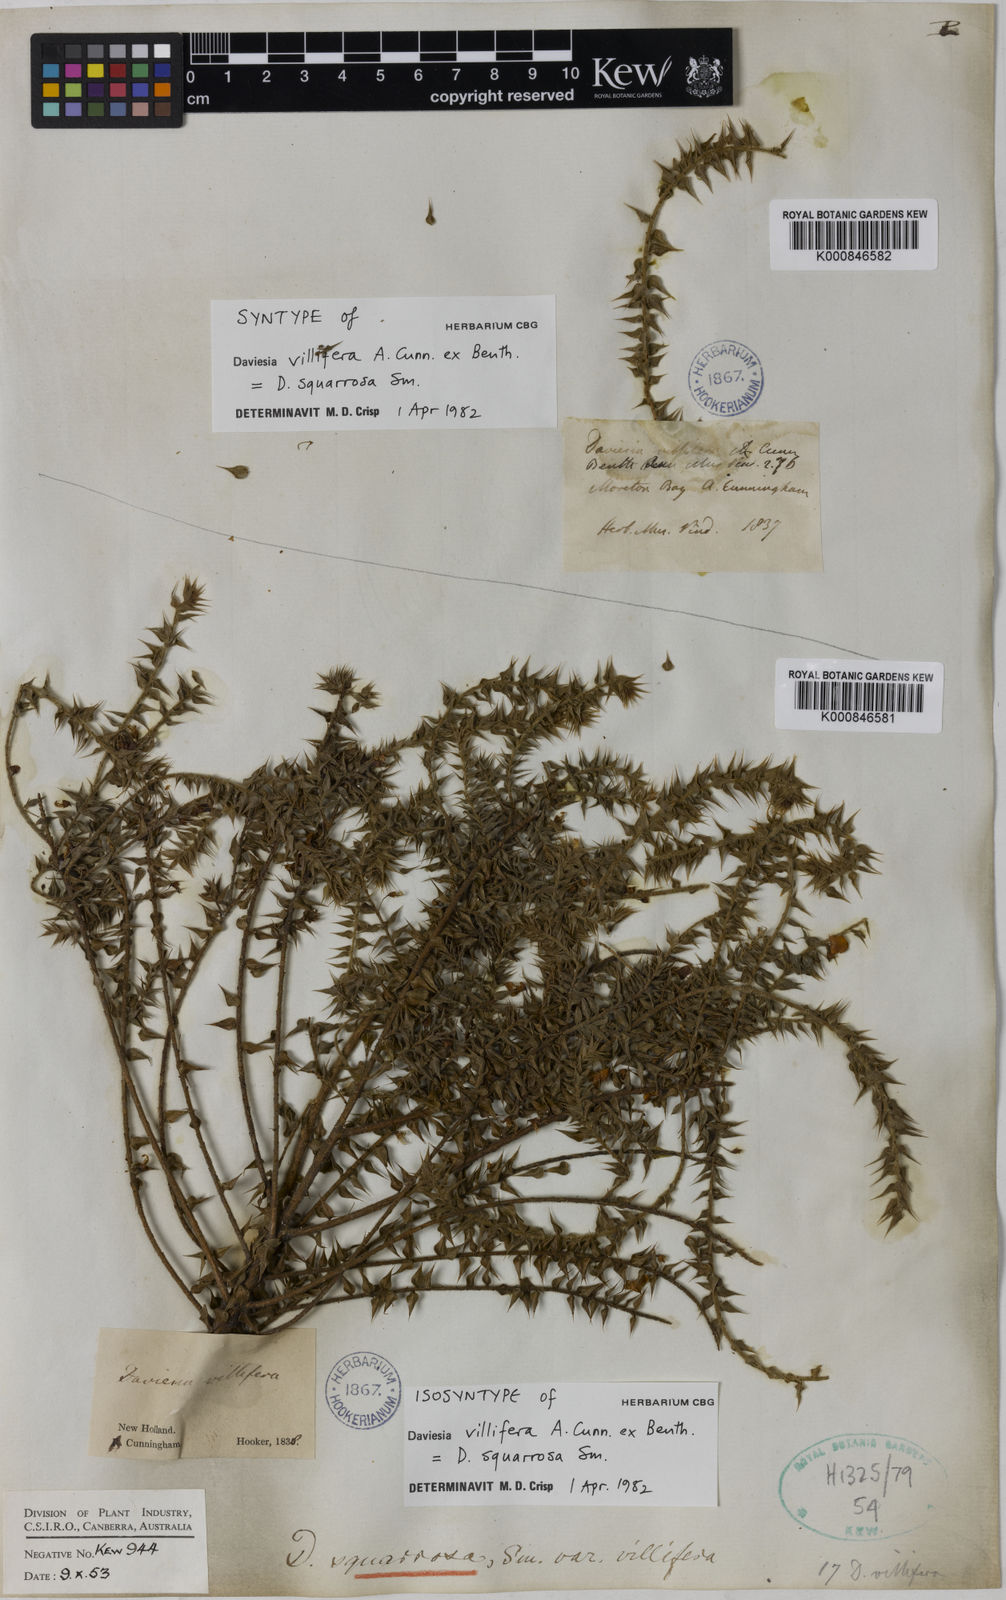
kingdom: Plantae
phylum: Tracheophyta
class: Magnoliopsida
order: Fabales
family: Fabaceae
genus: Daviesia
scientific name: Daviesia squarrosa
